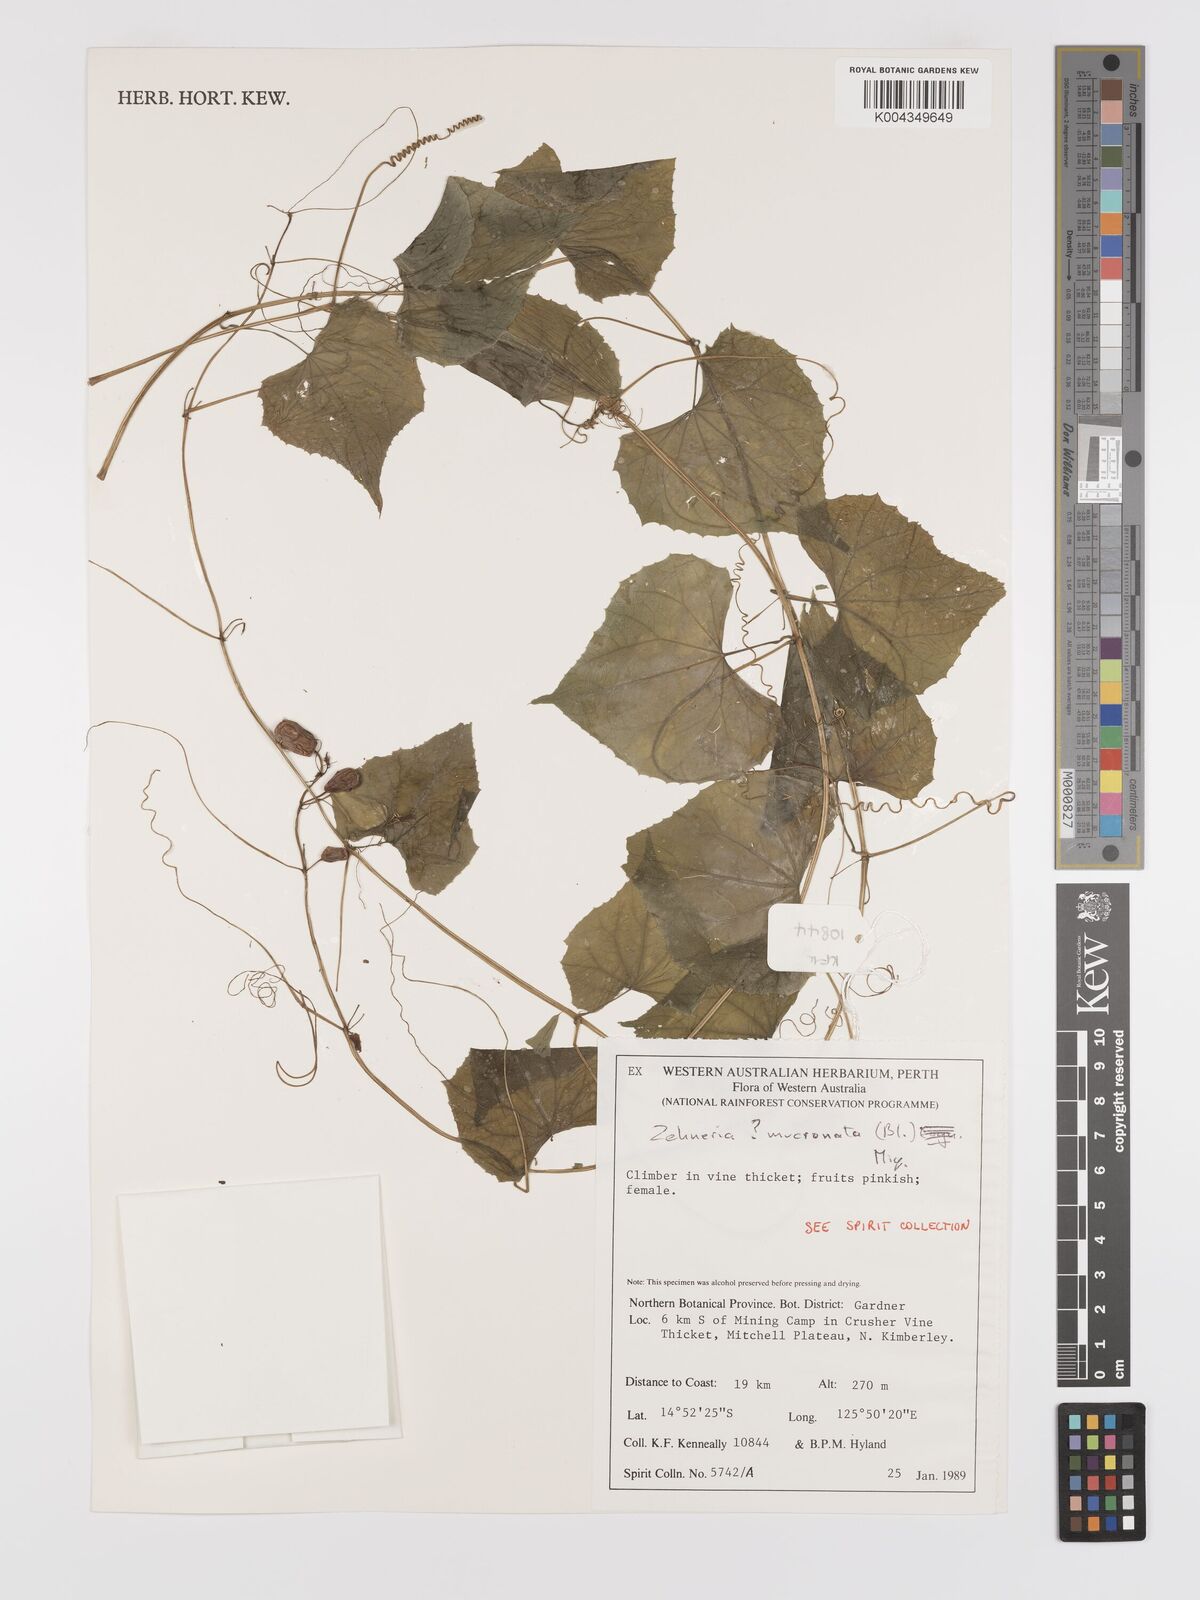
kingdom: Plantae
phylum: Tracheophyta
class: Magnoliopsida
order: Cucurbitales
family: Cucurbitaceae
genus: Zehneria
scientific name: Zehneria mucronata
